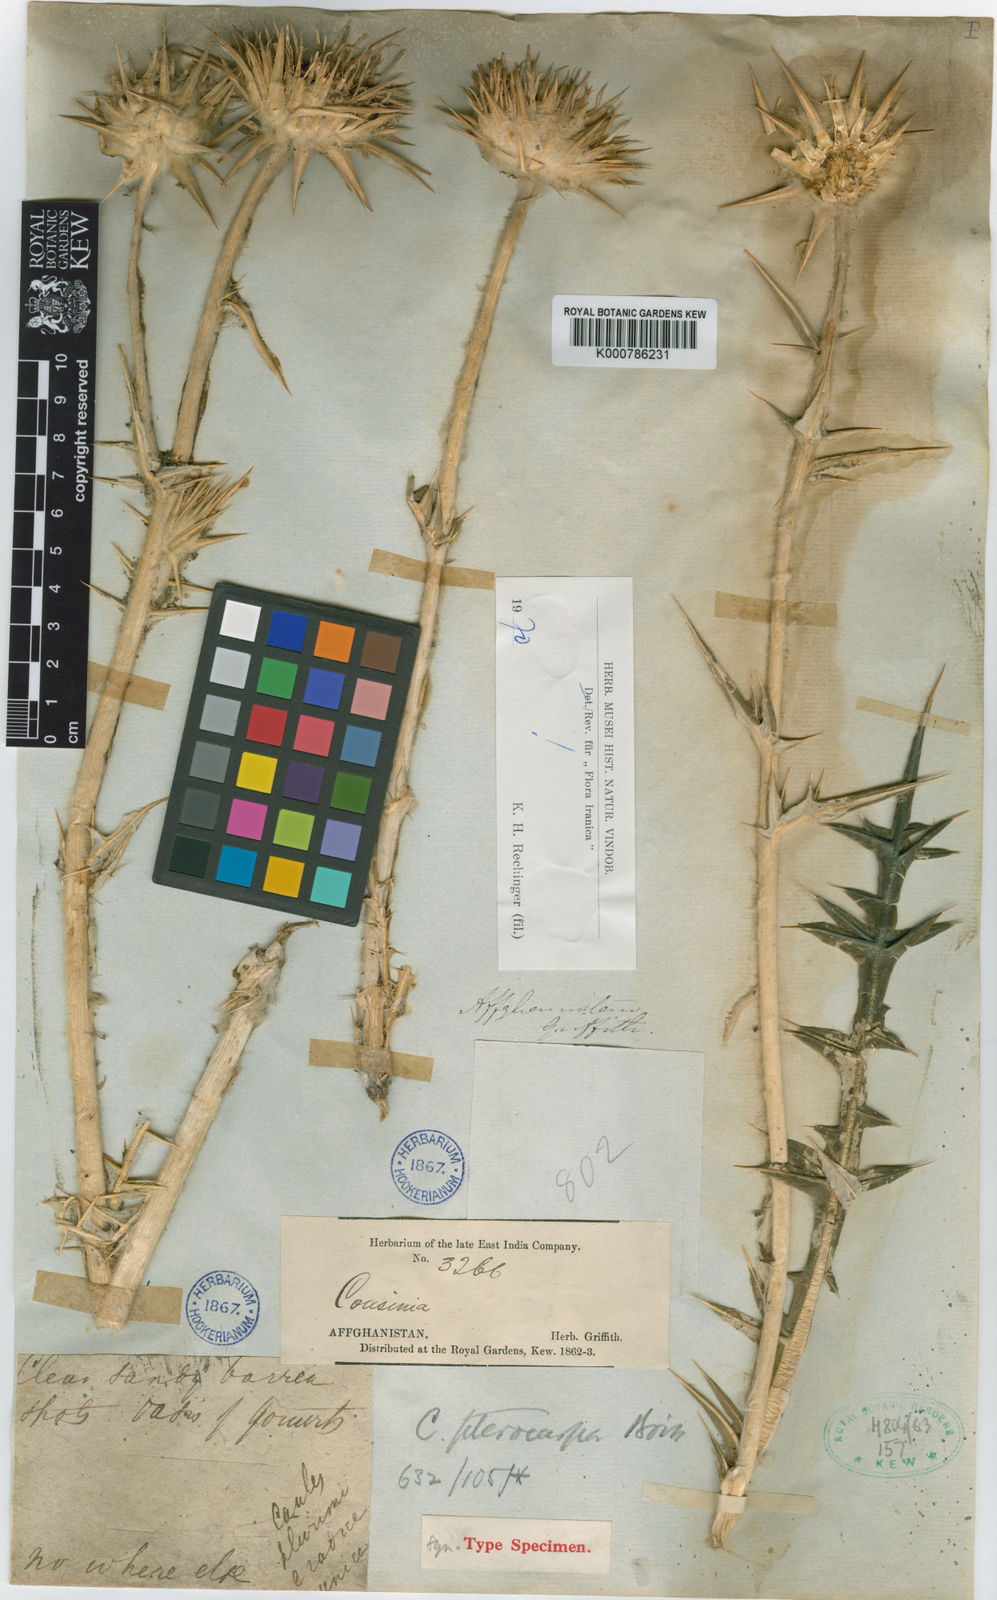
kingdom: Plantae
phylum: Tracheophyta
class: Magnoliopsida
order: Asterales
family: Asteraceae
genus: Cousinia
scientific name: Cousinia pterocarpa
